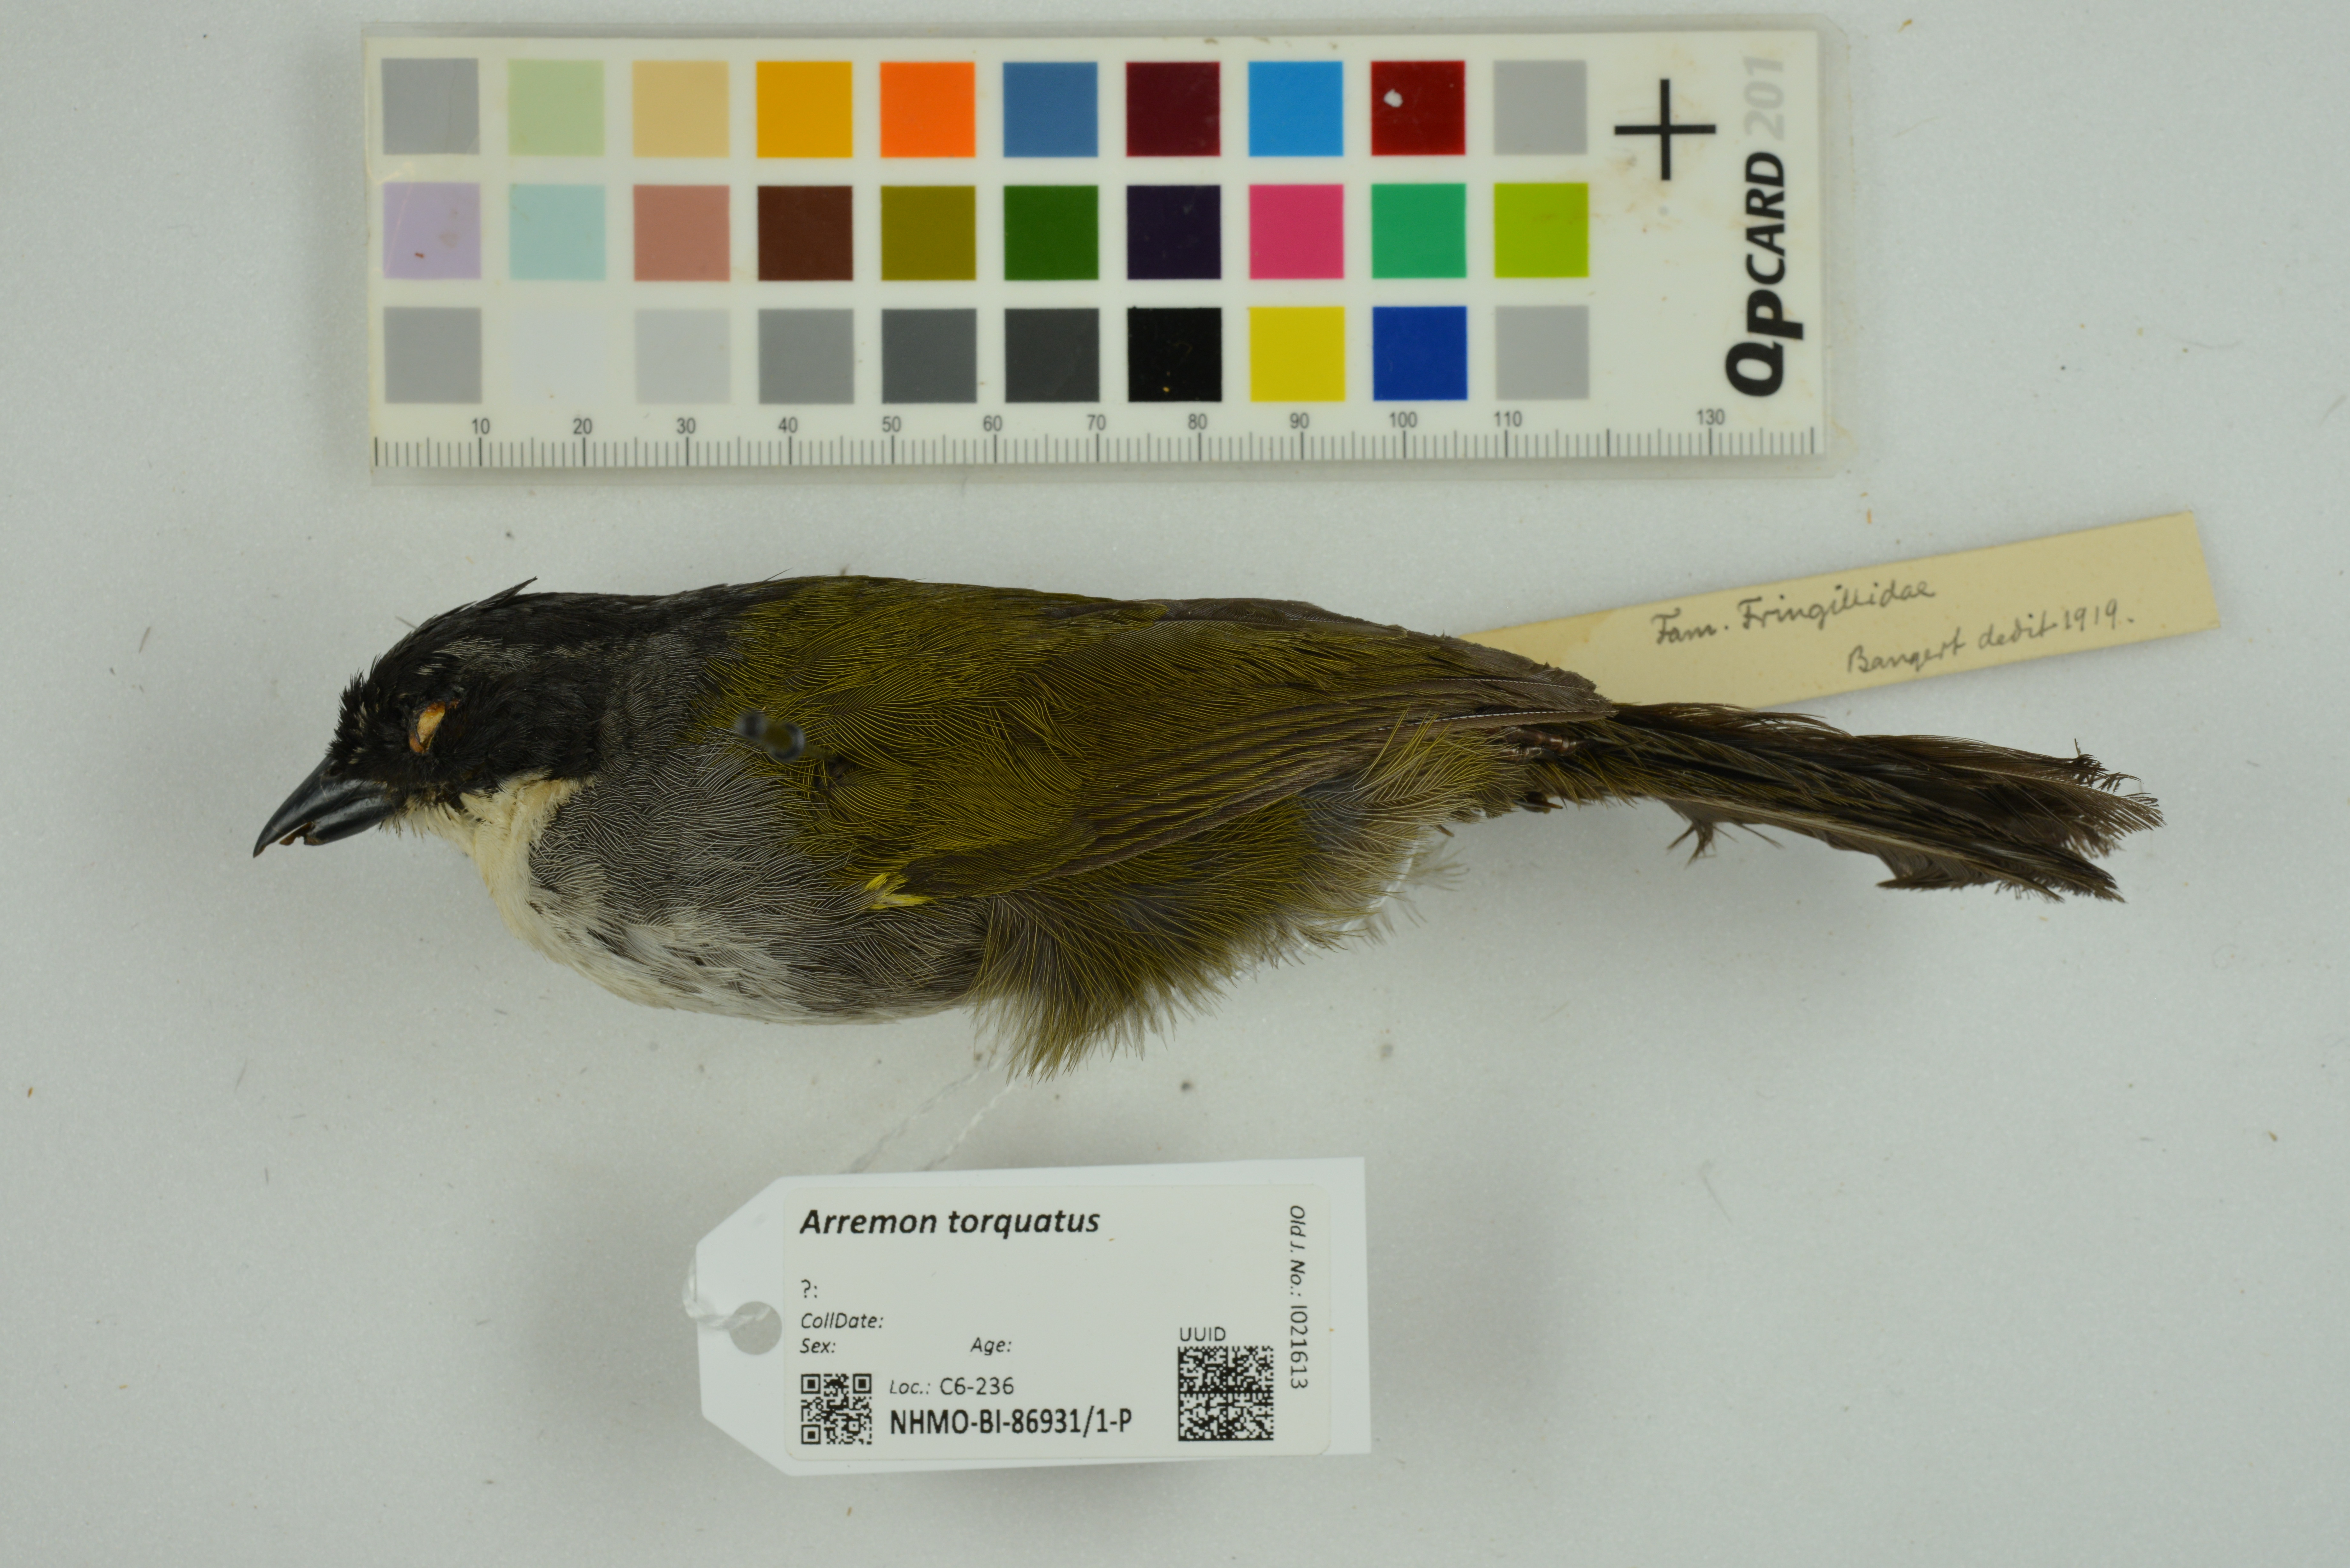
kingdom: Animalia
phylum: Chordata
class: Aves
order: Passeriformes
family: Passerellidae
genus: Arremon
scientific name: Arremon torquatus
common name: White-browed brushfinch
